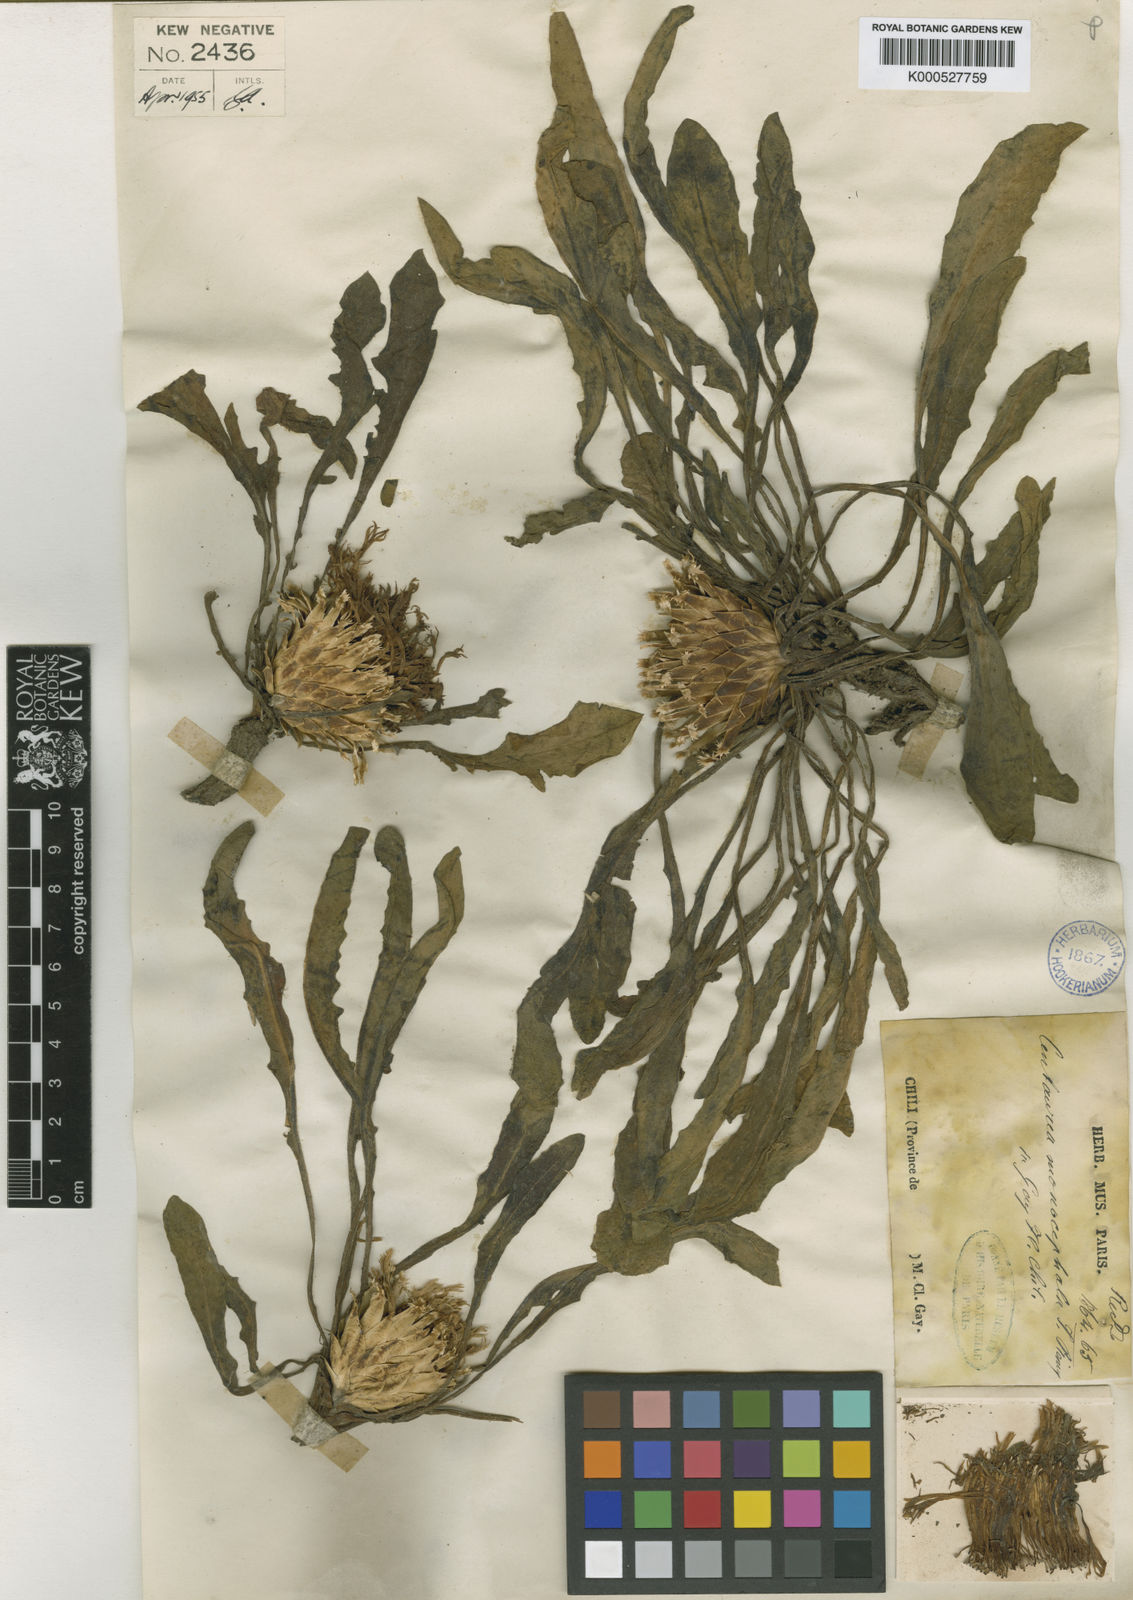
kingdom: Plantae
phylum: Tracheophyta
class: Magnoliopsida
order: Asterales
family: Asteraceae
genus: Plectocephalus
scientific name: Plectocephalus monocephalus
